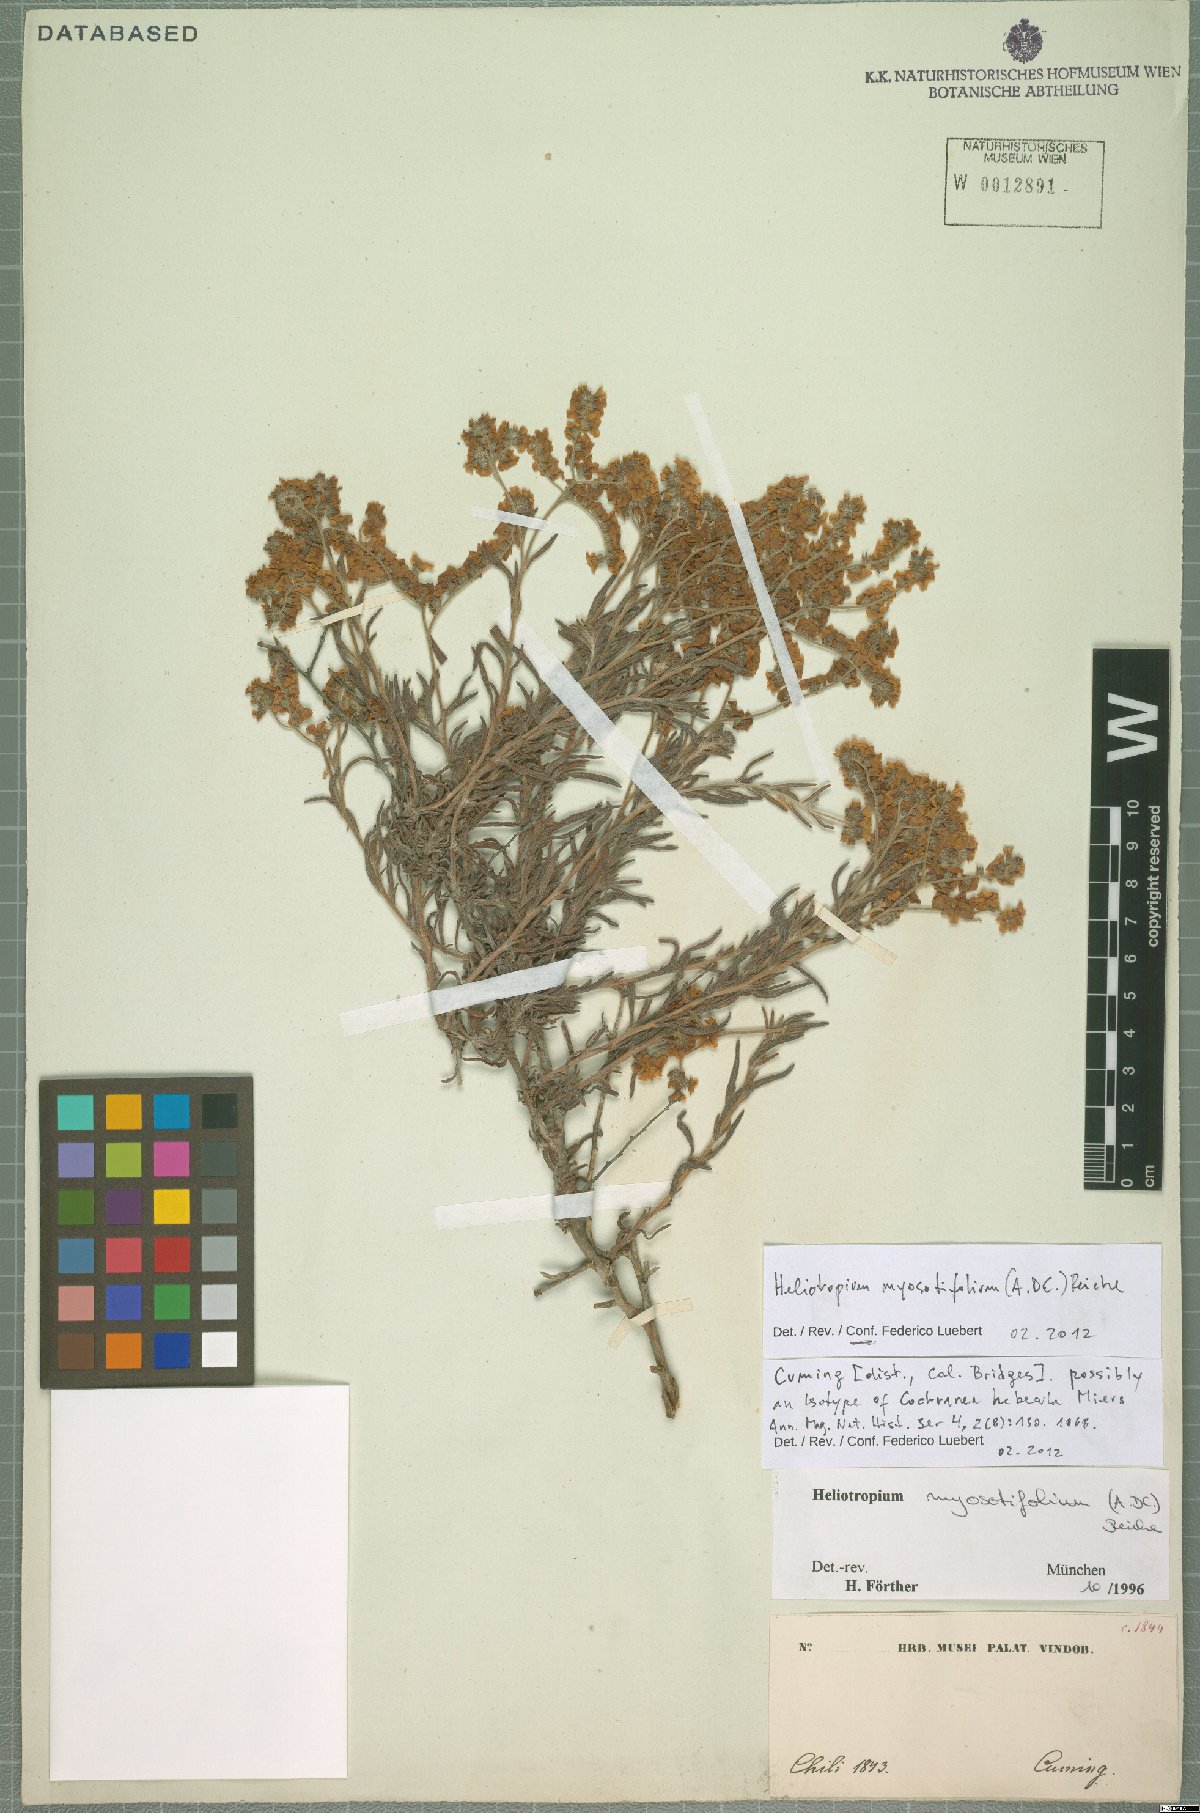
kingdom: Plantae
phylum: Tracheophyta
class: Magnoliopsida
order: Boraginales
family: Heliotropiaceae
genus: Heliotropium
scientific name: Heliotropium myosotifolium
